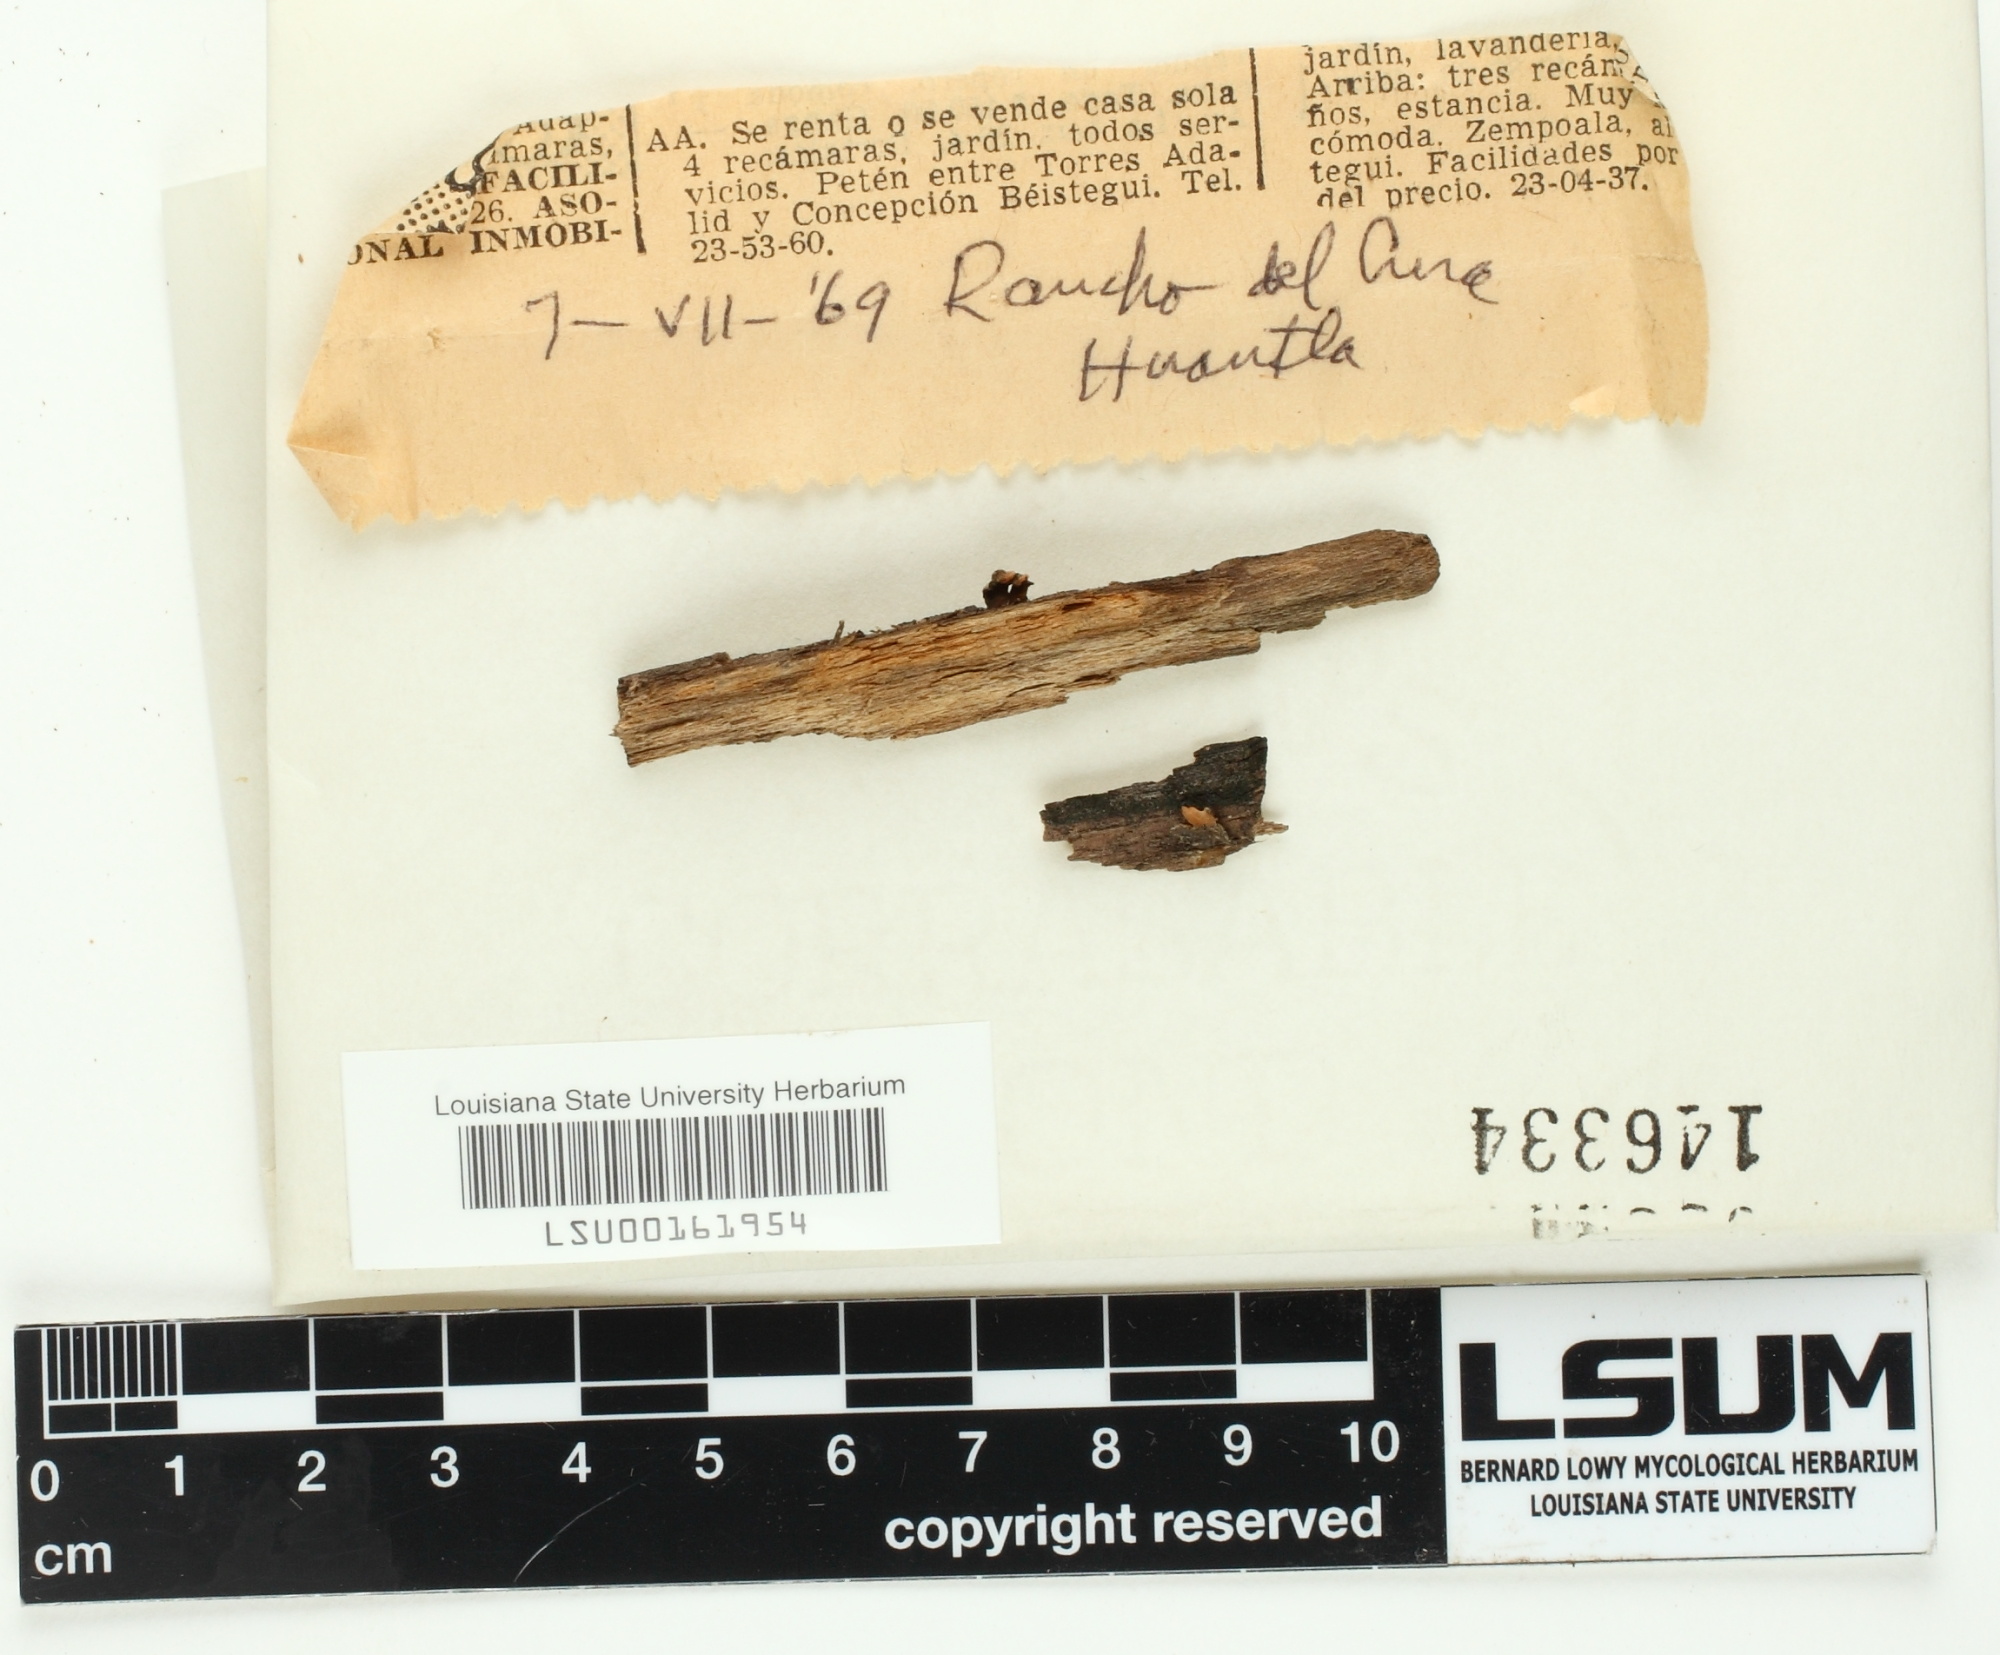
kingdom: Fungi
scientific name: Fungi
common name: Fungi
